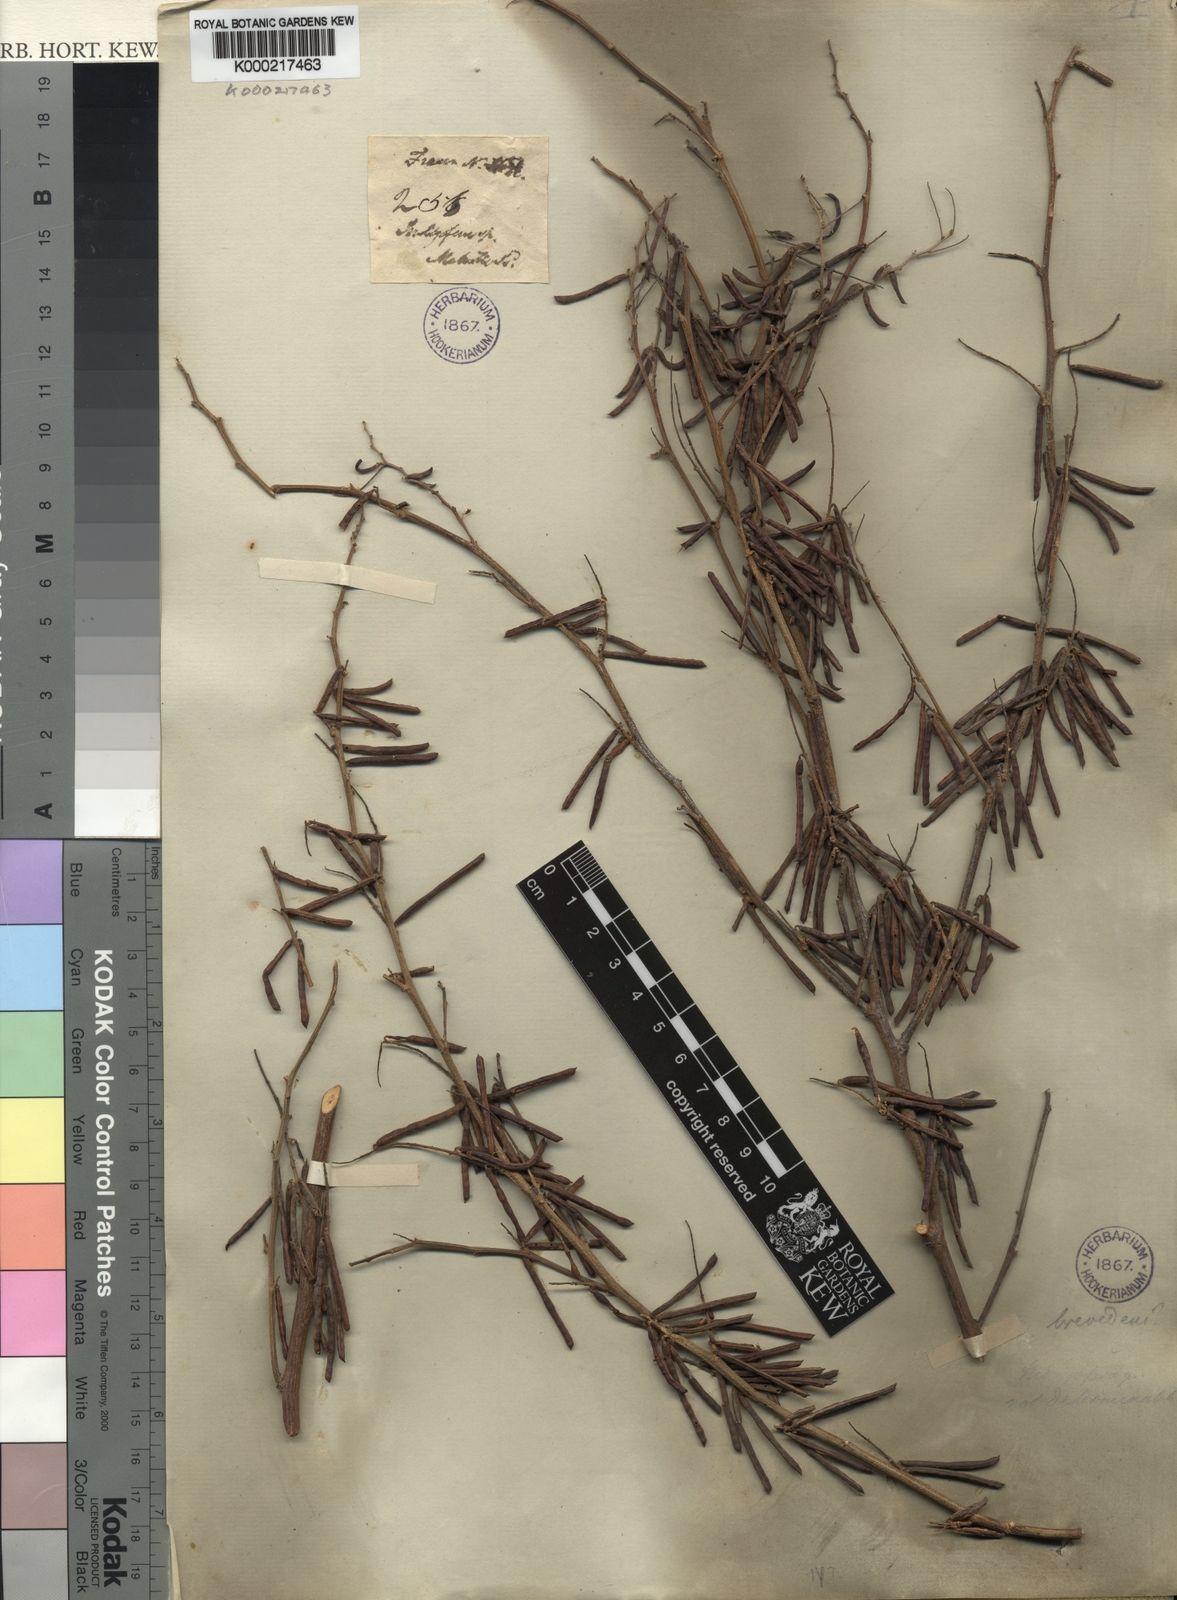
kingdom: Plantae
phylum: Tracheophyta
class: Magnoliopsida
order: Fabales
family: Fabaceae
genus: Indigofera
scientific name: Indigofera
